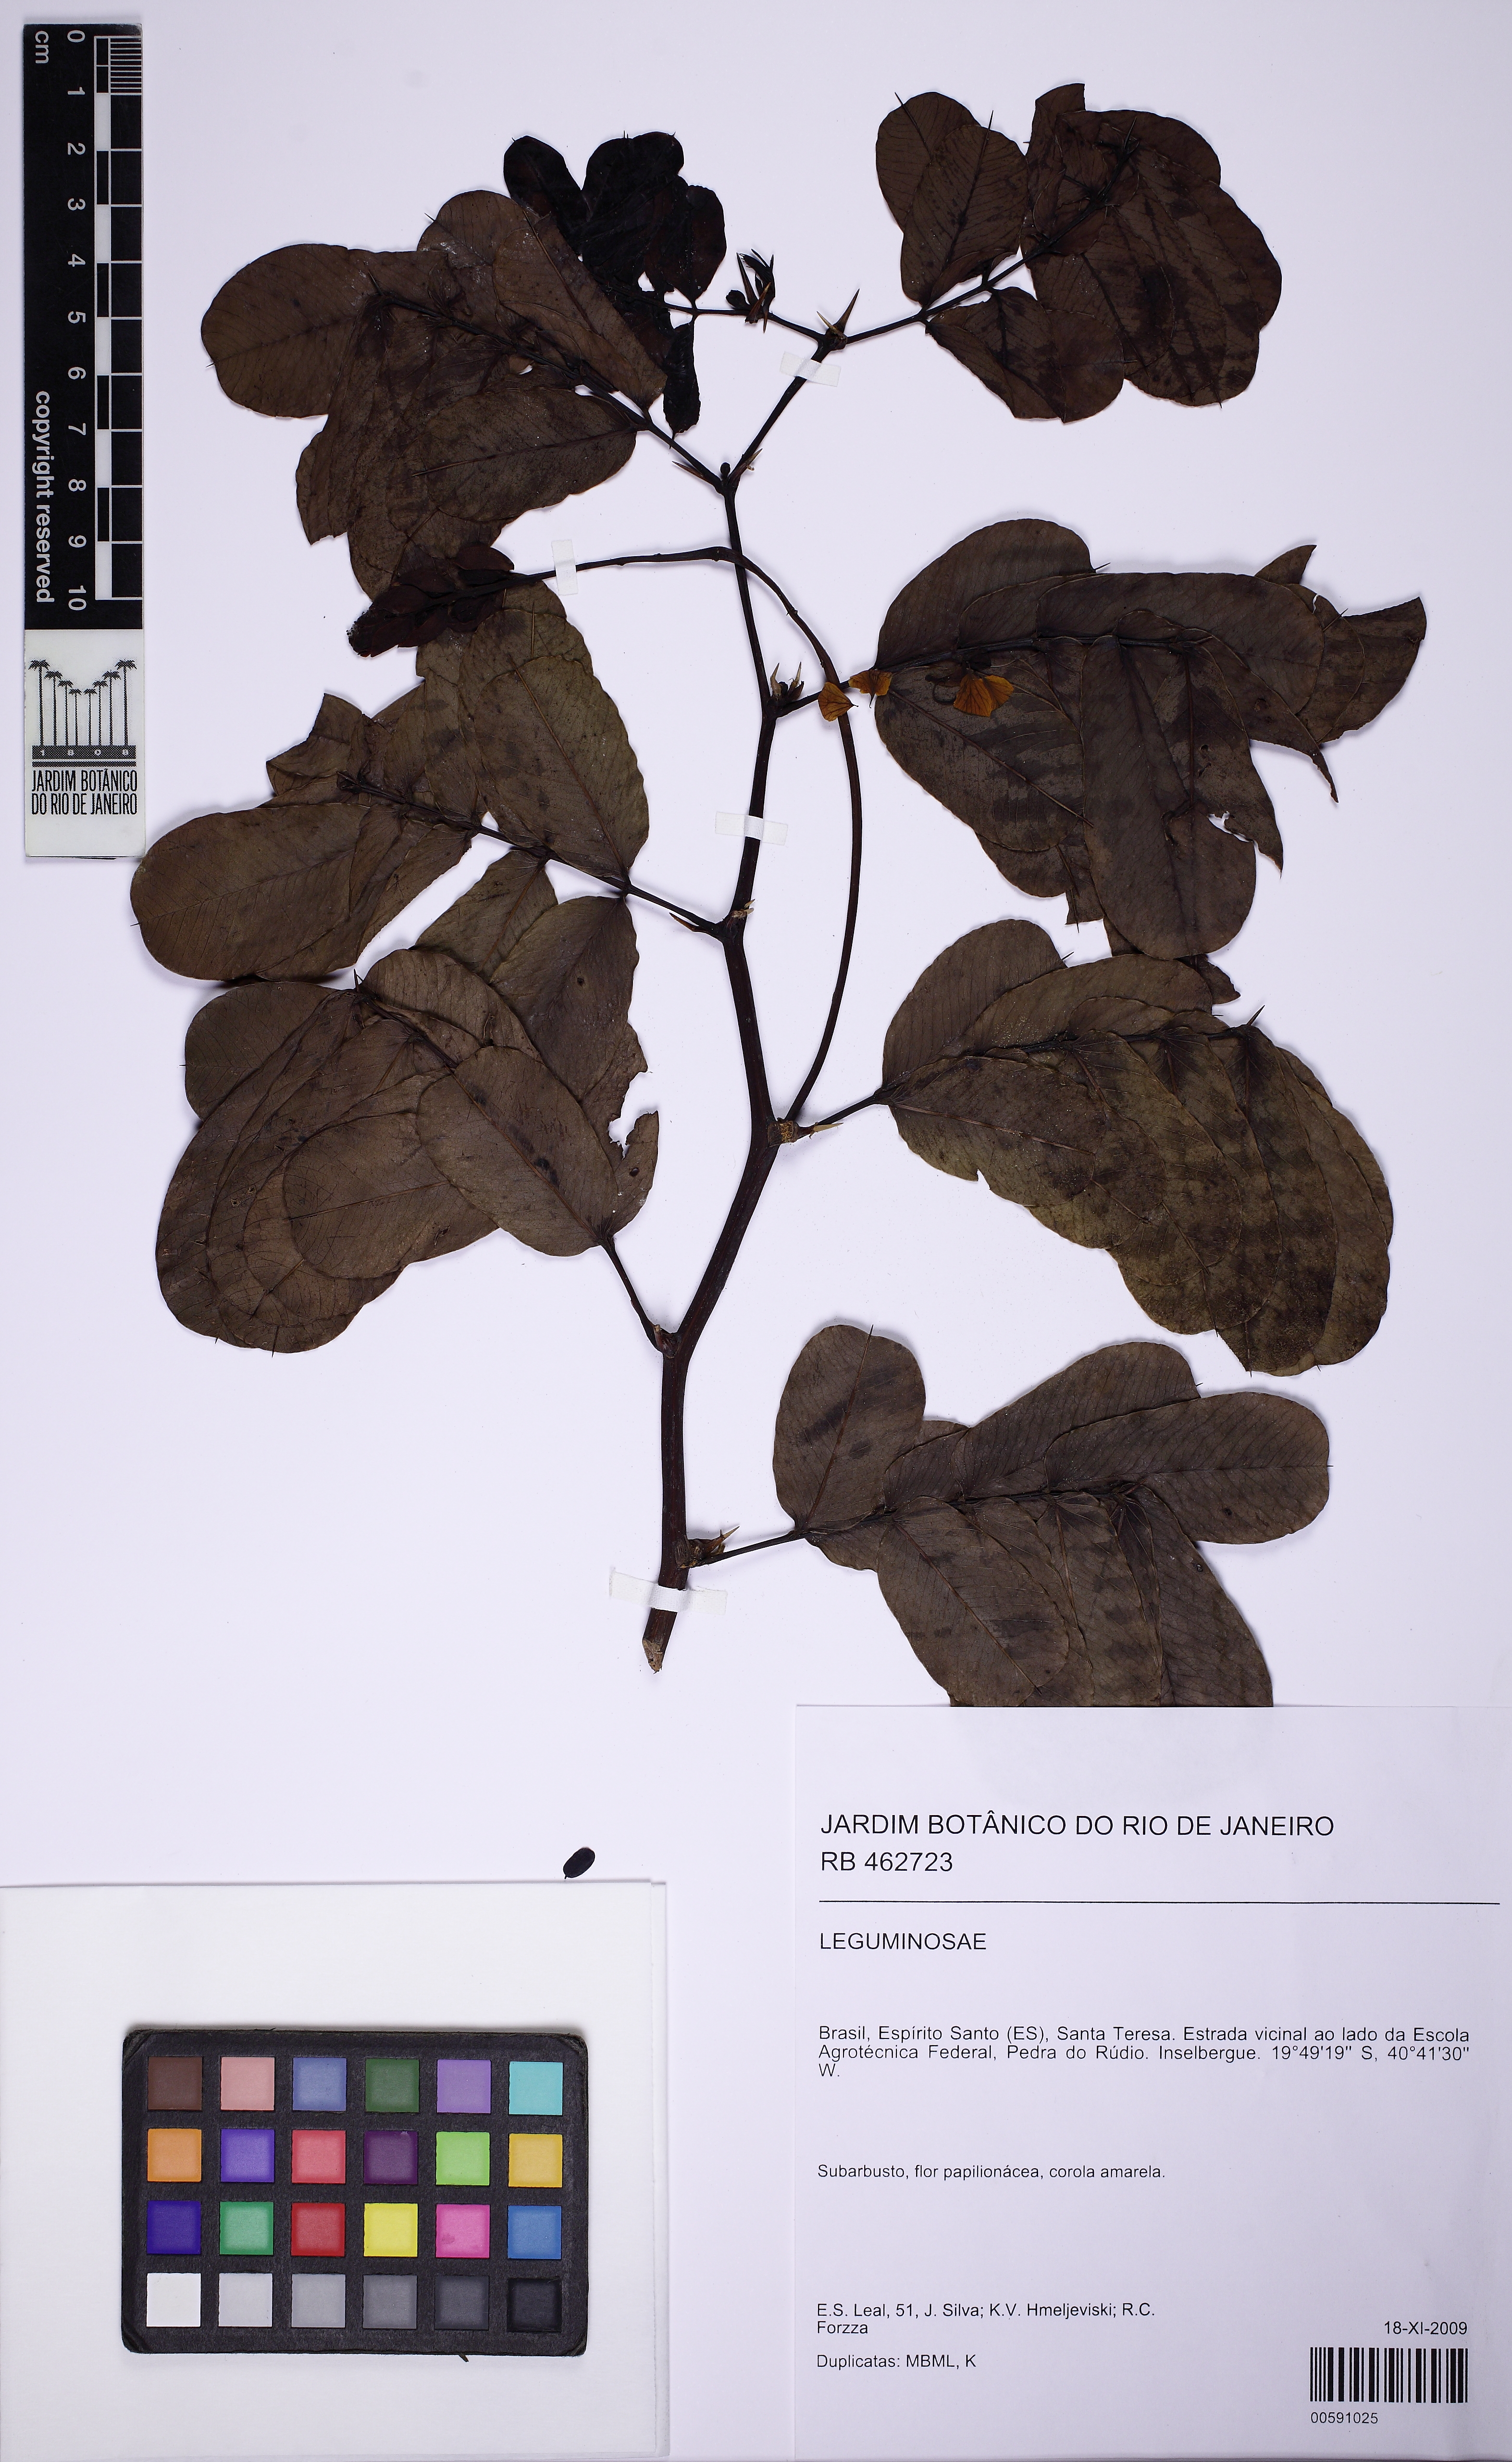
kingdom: Plantae
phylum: Tracheophyta
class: Magnoliopsida
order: Fabales
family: Fabaceae
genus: Senna
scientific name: Senna
